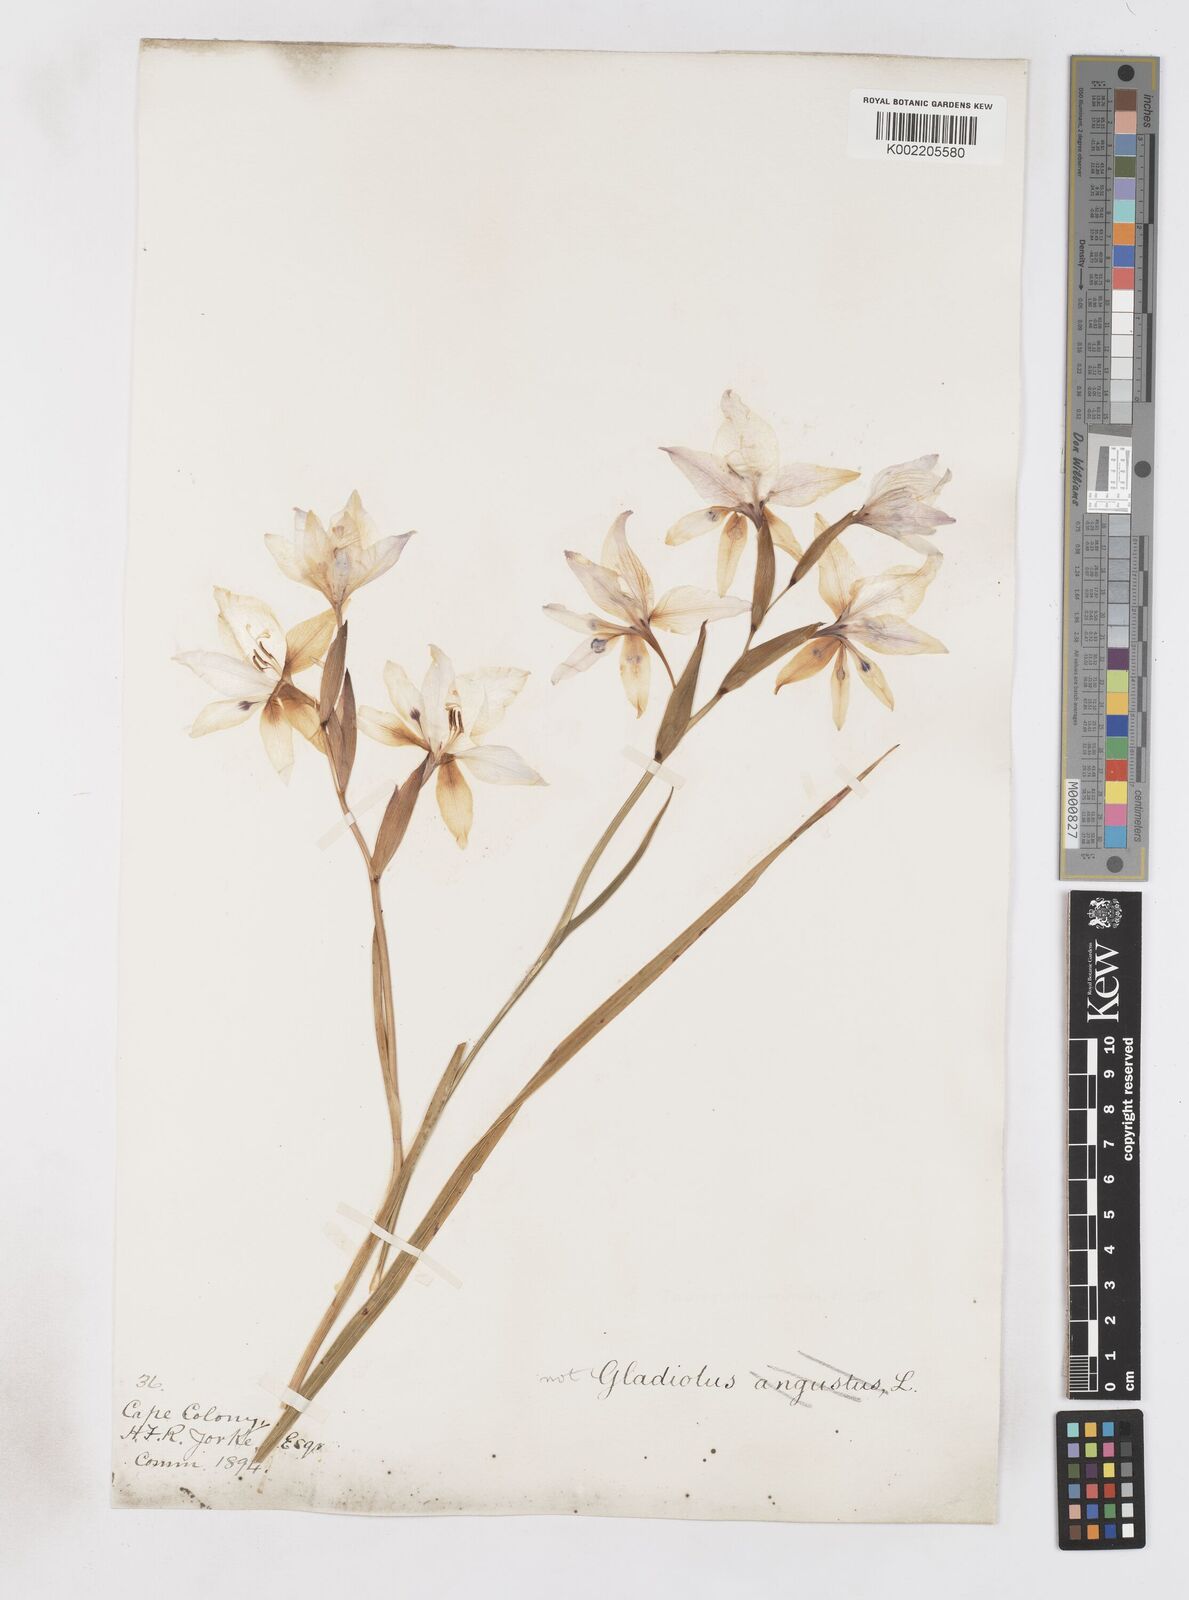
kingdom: Plantae
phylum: Tracheophyta
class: Liliopsida
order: Asparagales
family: Iridaceae
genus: Gladiolus
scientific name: Gladiolus carneus
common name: Painted-lady
